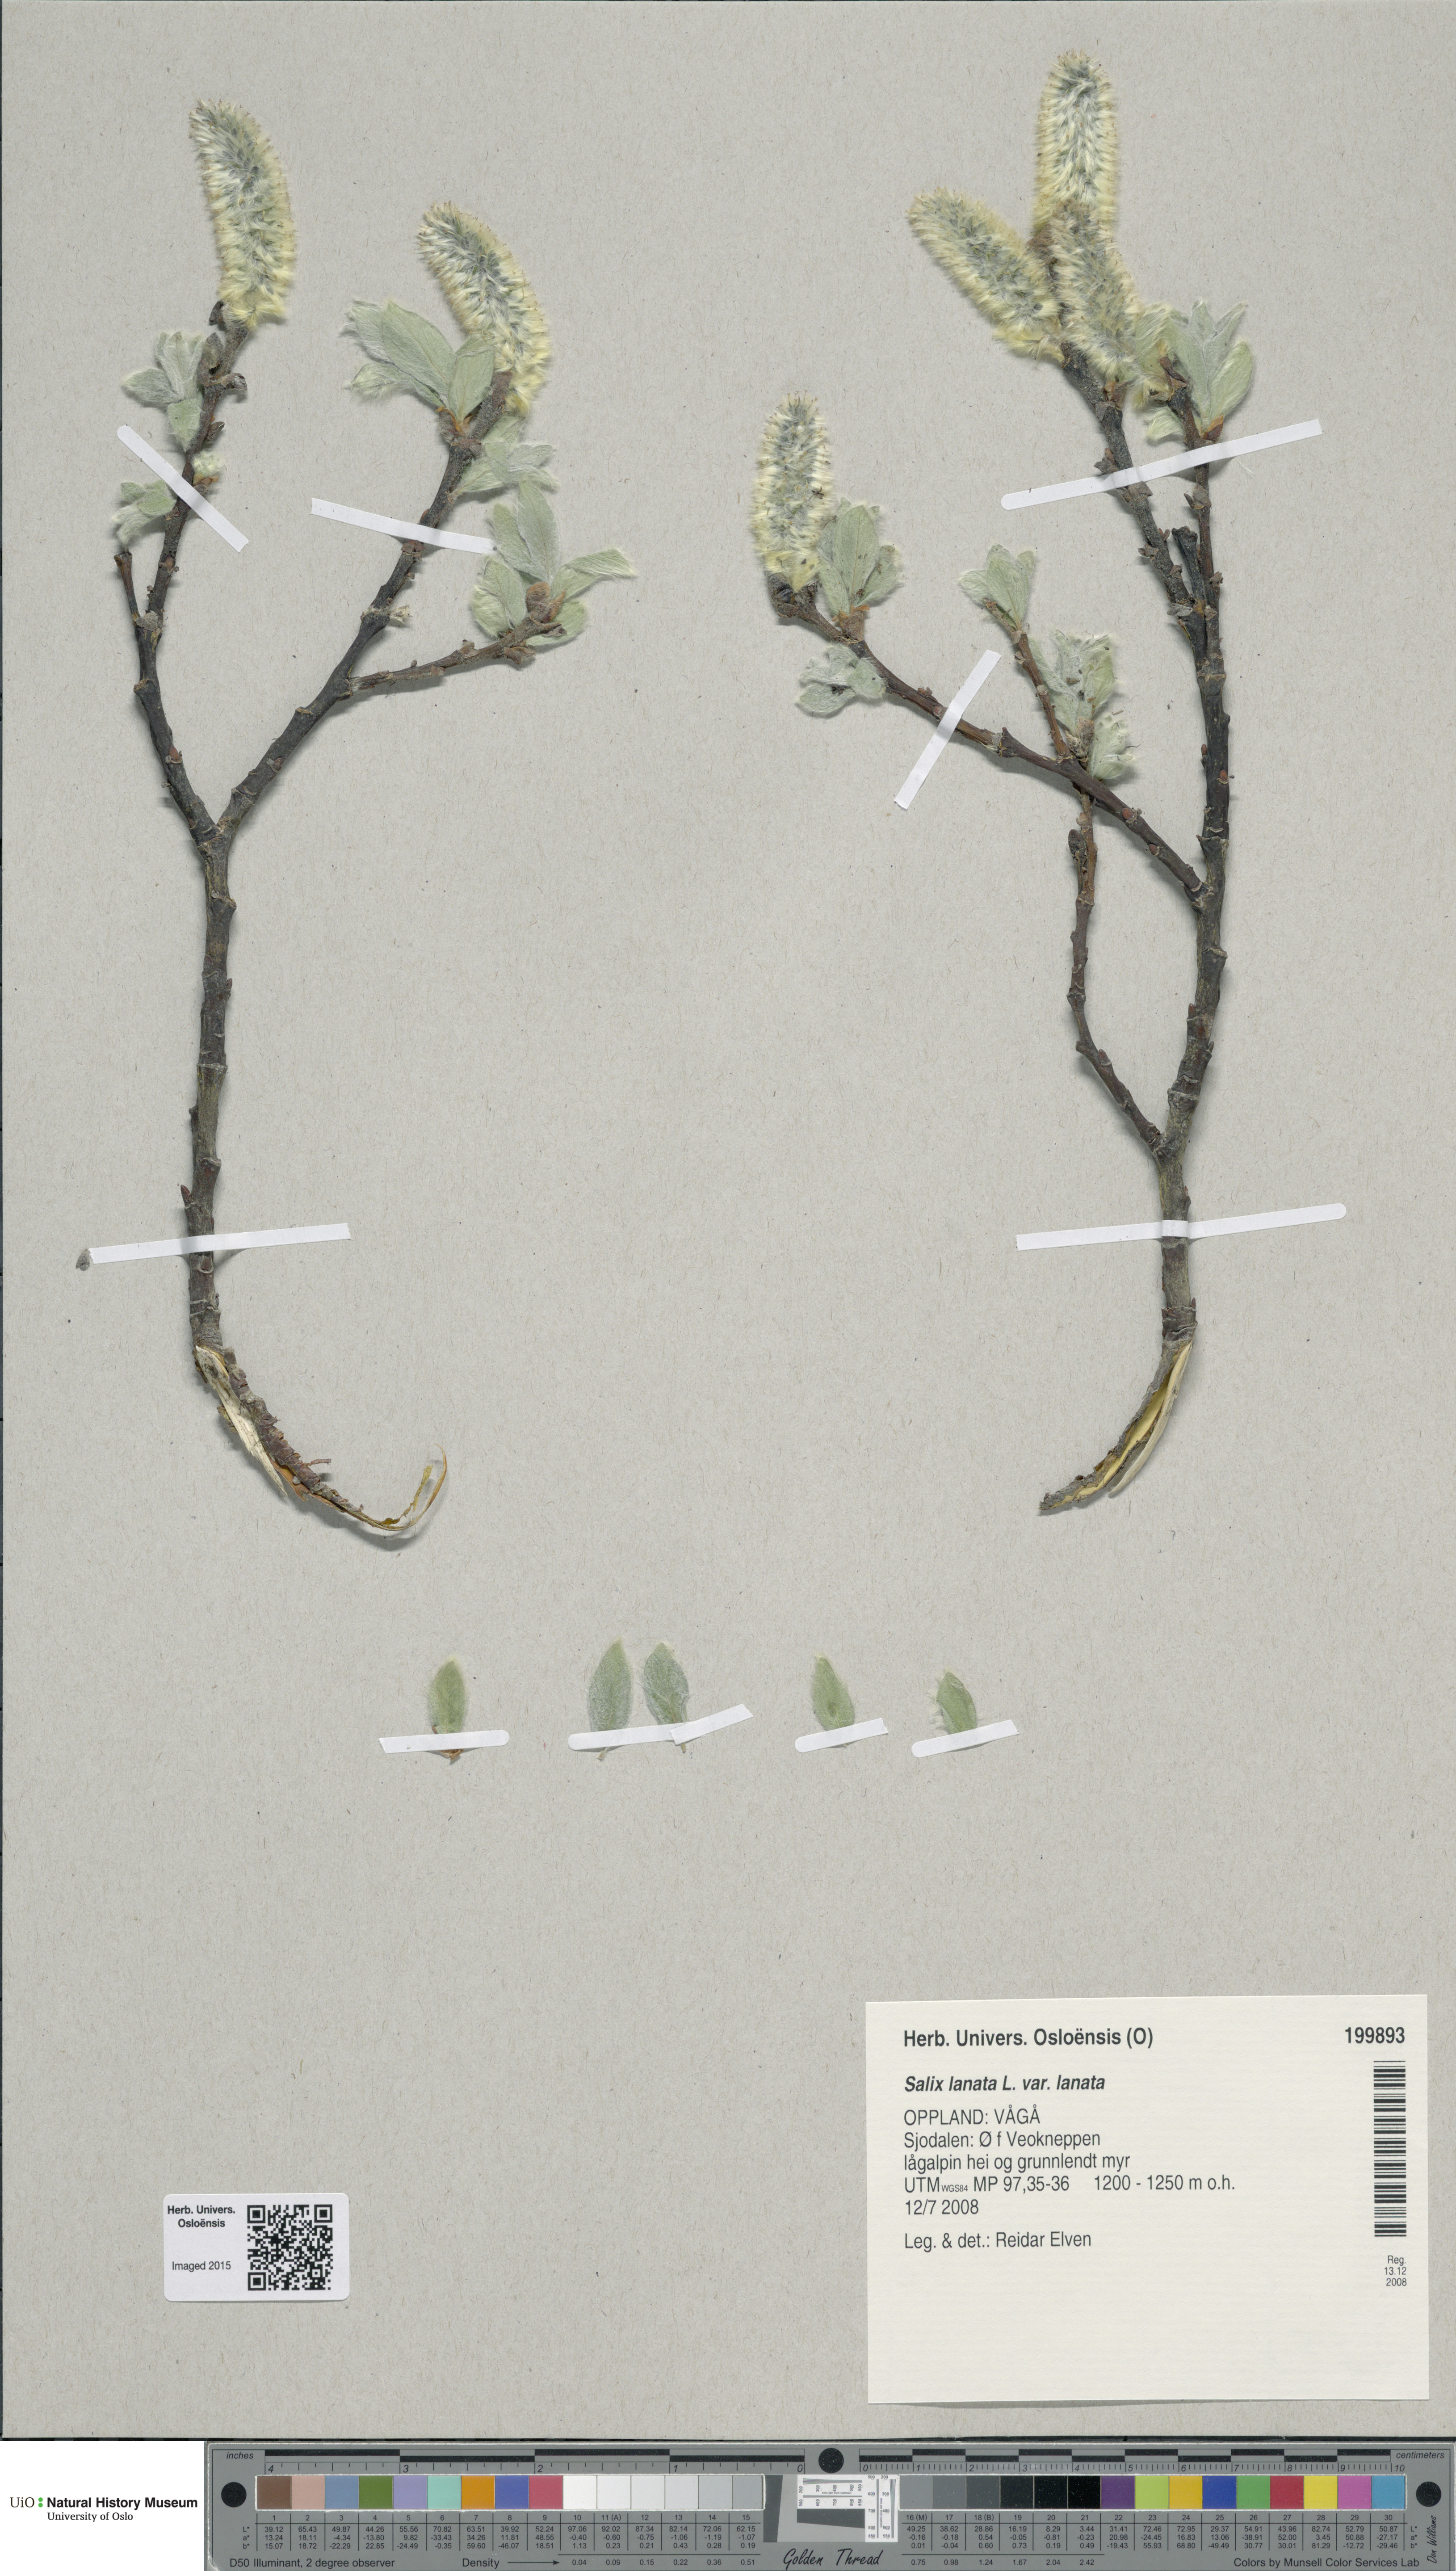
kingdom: Plantae
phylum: Tracheophyta
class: Magnoliopsida
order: Malpighiales
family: Salicaceae
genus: Salix
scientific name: Salix lanata
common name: Woolly willow
